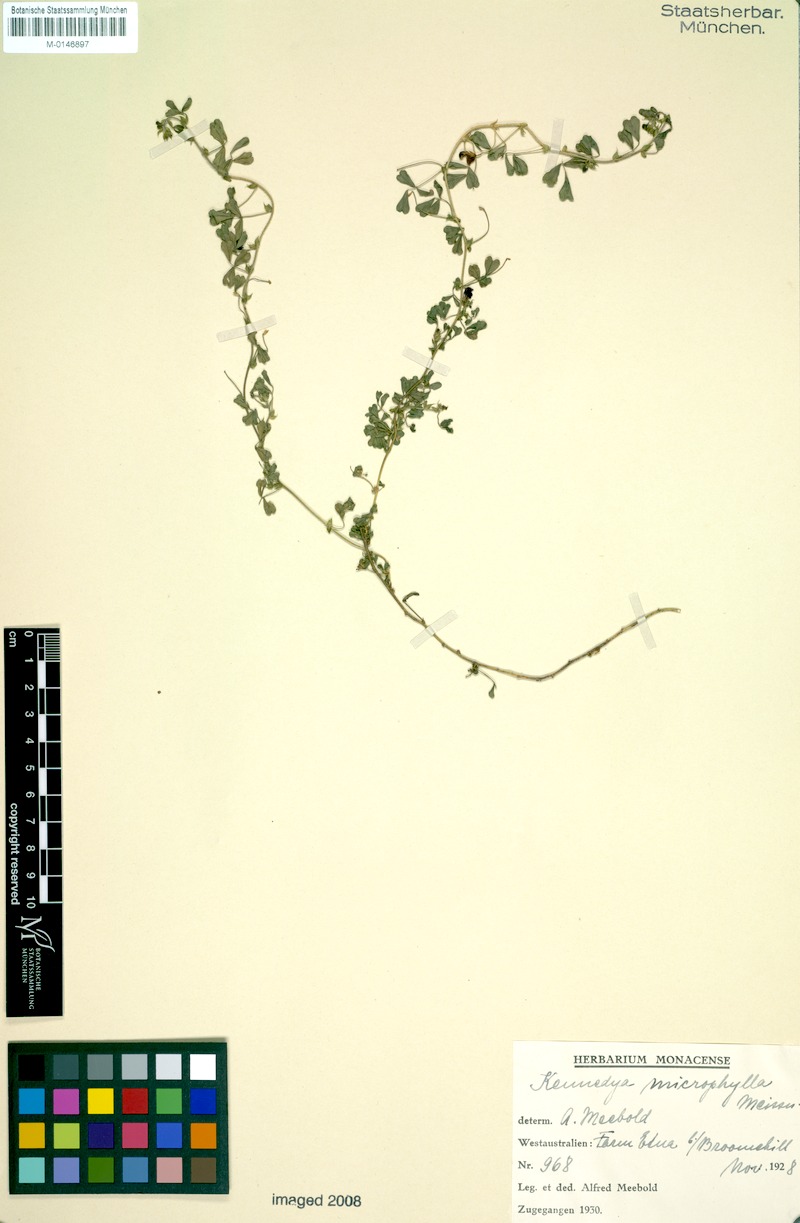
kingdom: Plantae
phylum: Tracheophyta
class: Magnoliopsida
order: Fabales
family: Fabaceae
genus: Kennedia
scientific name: Kennedia microphylla
